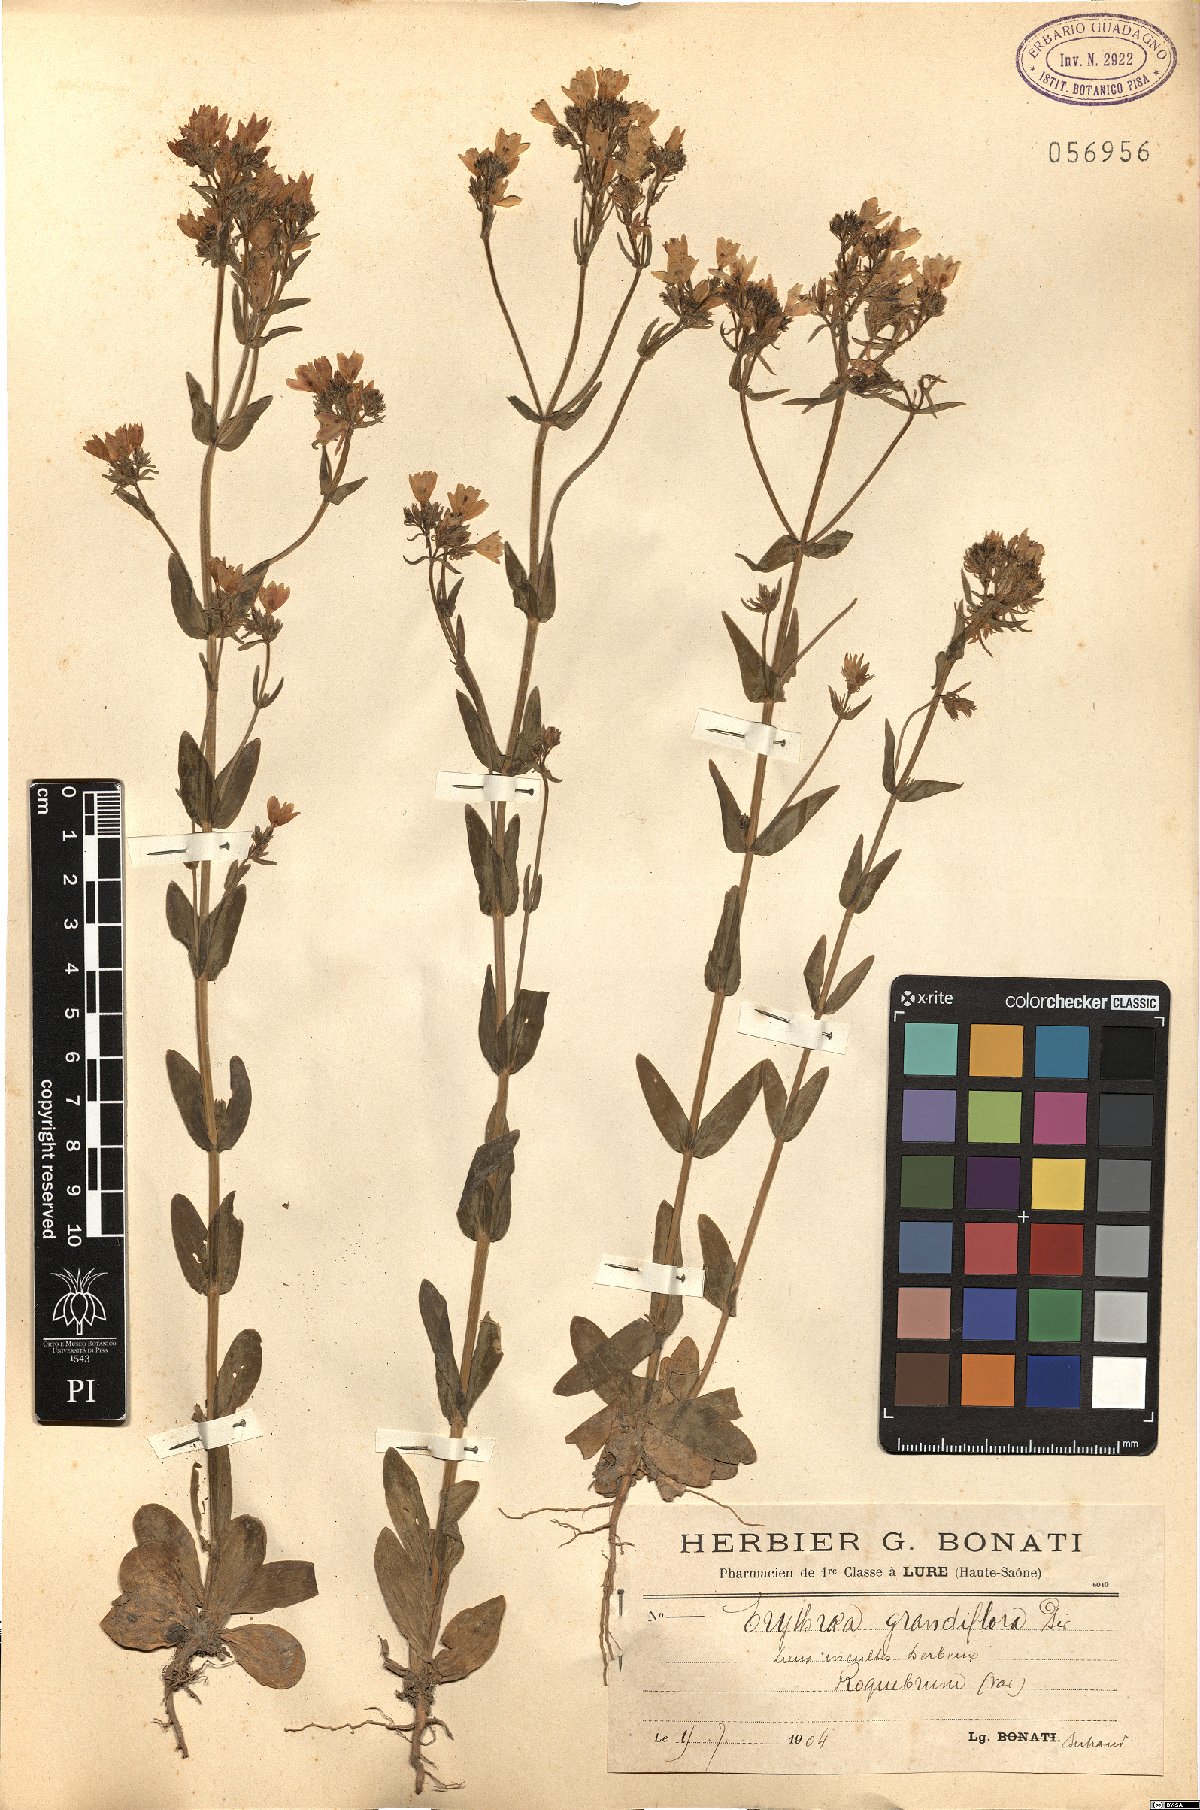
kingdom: Plantae
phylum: Tracheophyta
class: Magnoliopsida
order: Gentianales
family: Gentianaceae
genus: Centaurium
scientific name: Centaurium grandiflorum
